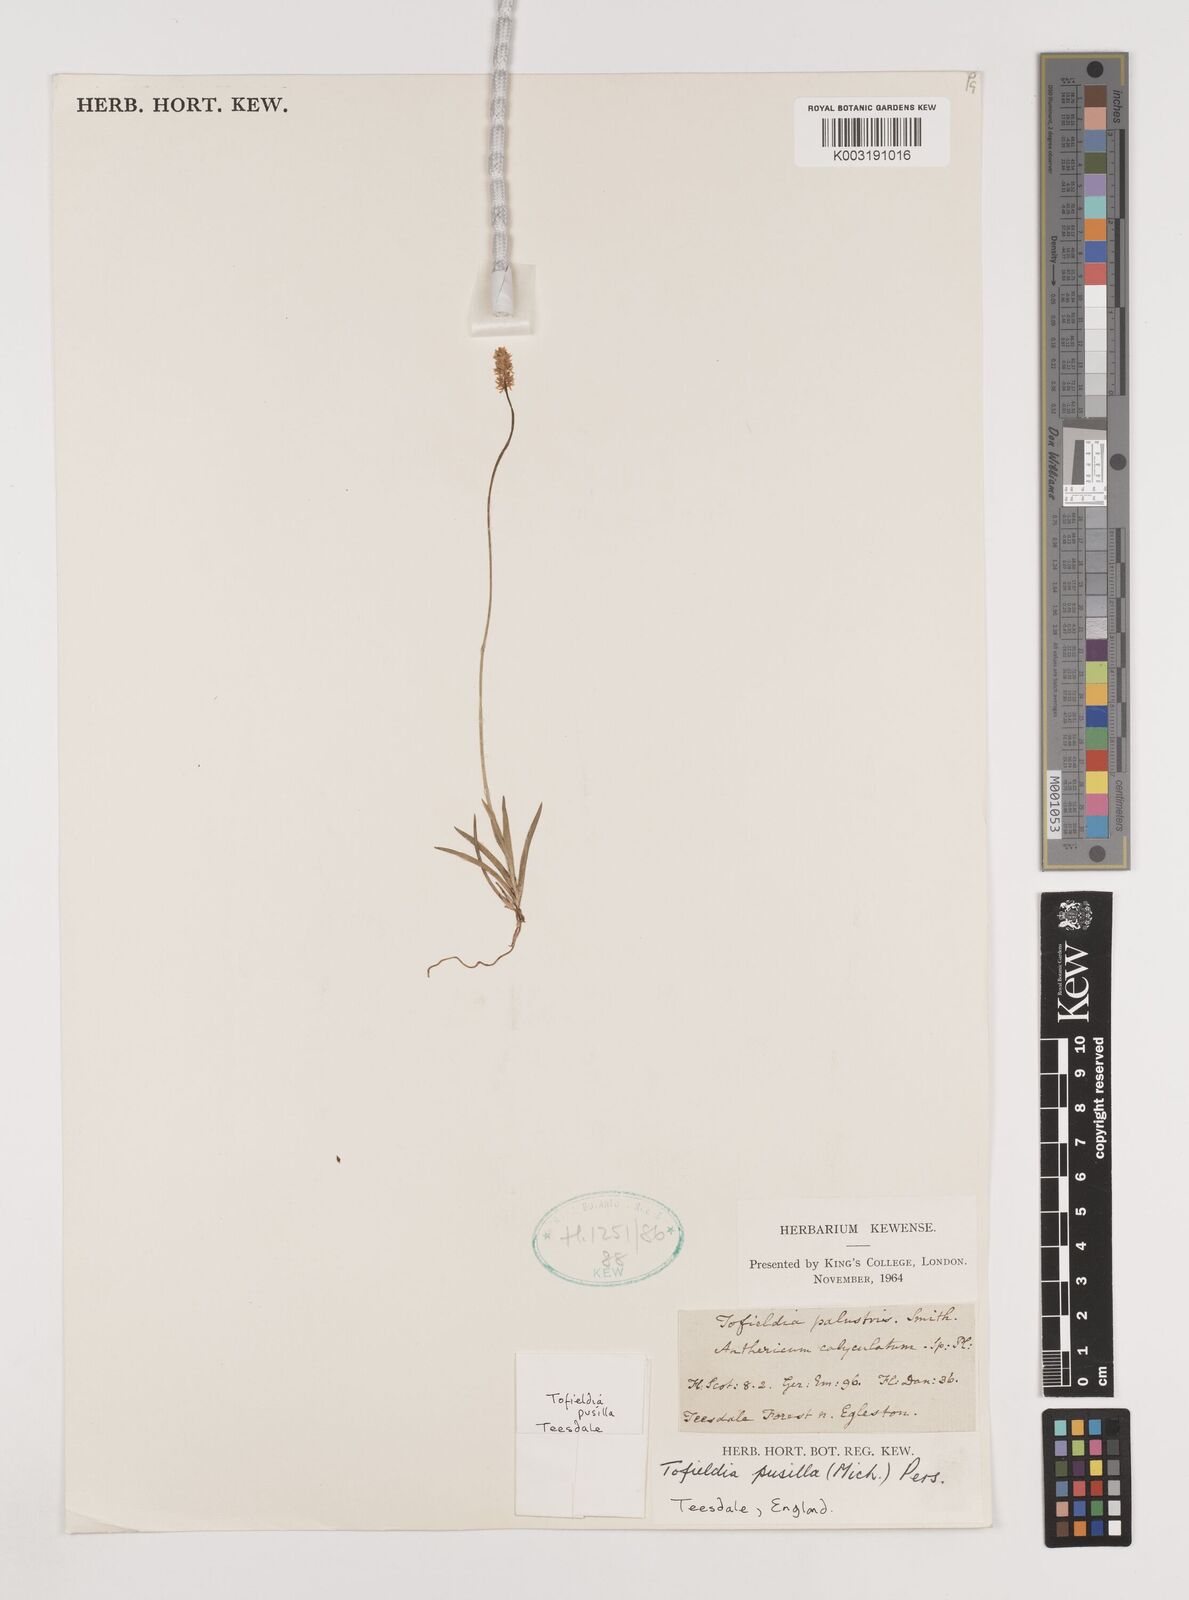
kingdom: Plantae
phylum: Tracheophyta
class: Liliopsida
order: Alismatales
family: Tofieldiaceae
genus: Tofieldia
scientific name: Tofieldia pusilla
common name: Scottish false asphodel
